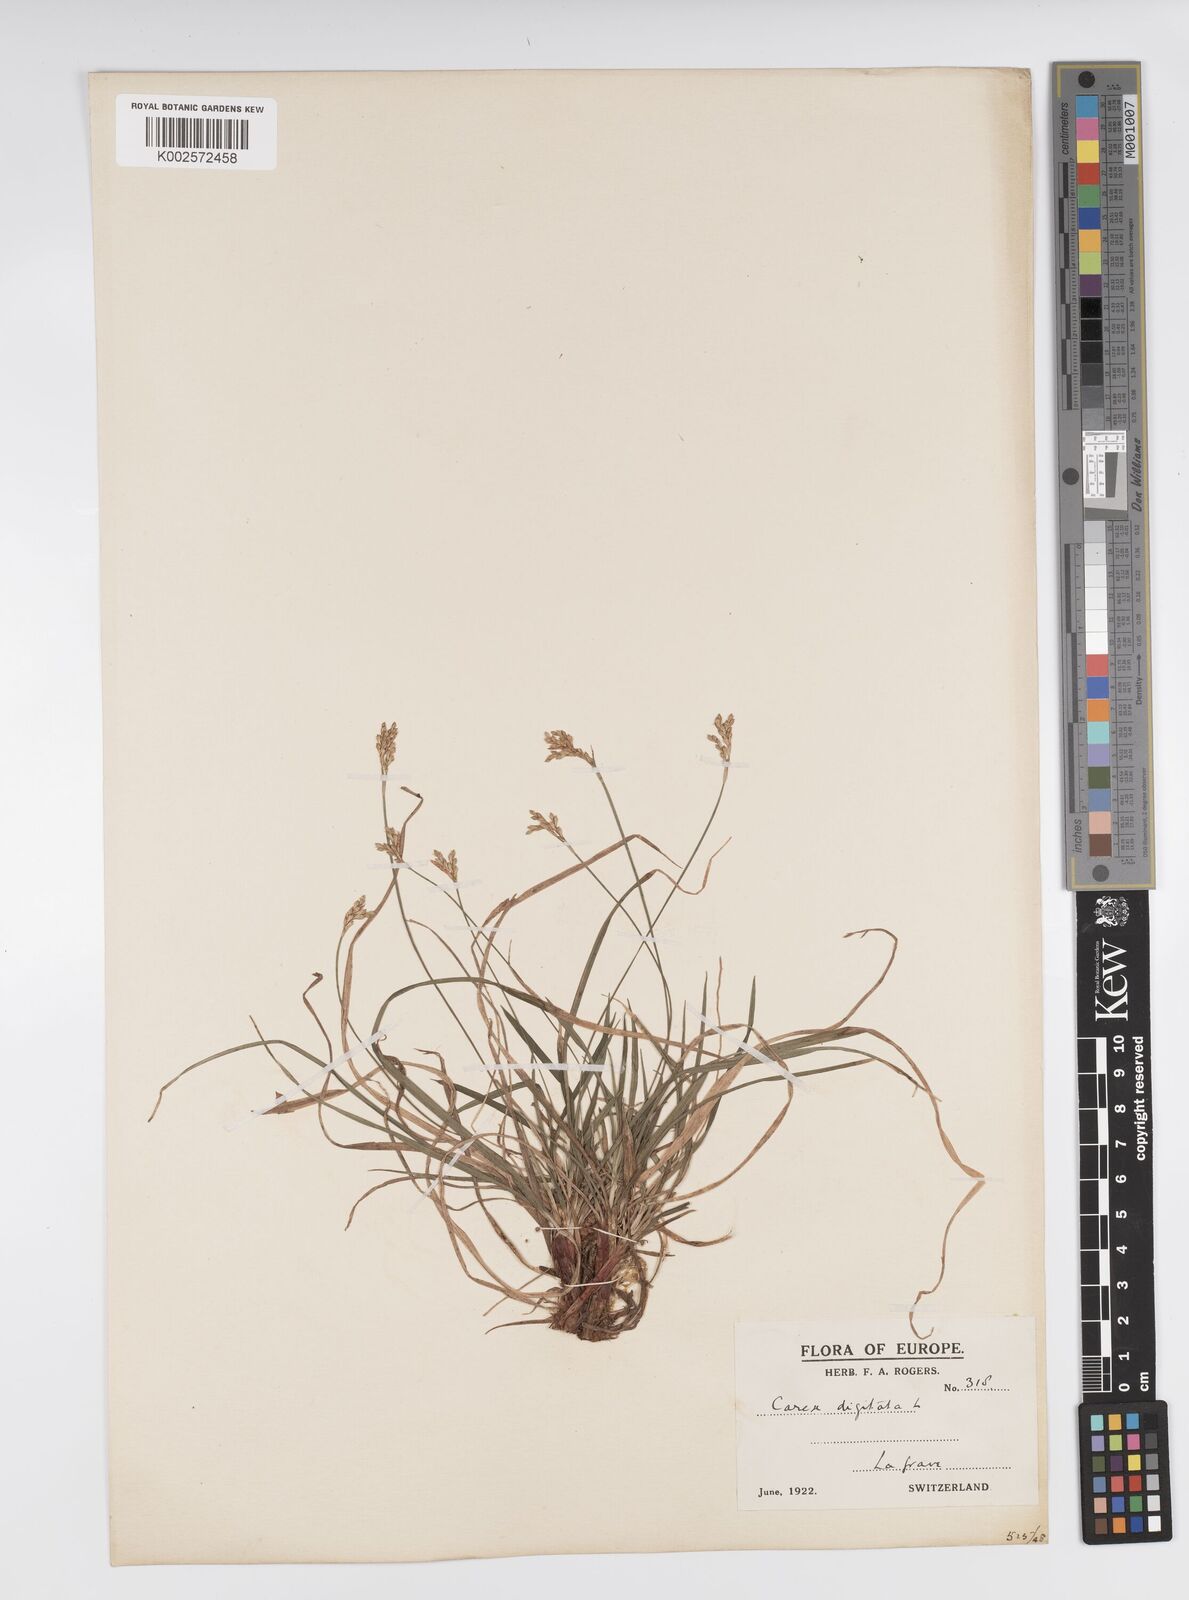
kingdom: Plantae
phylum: Tracheophyta
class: Liliopsida
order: Poales
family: Cyperaceae
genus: Carex
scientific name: Carex digitata
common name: Fingered sedge
